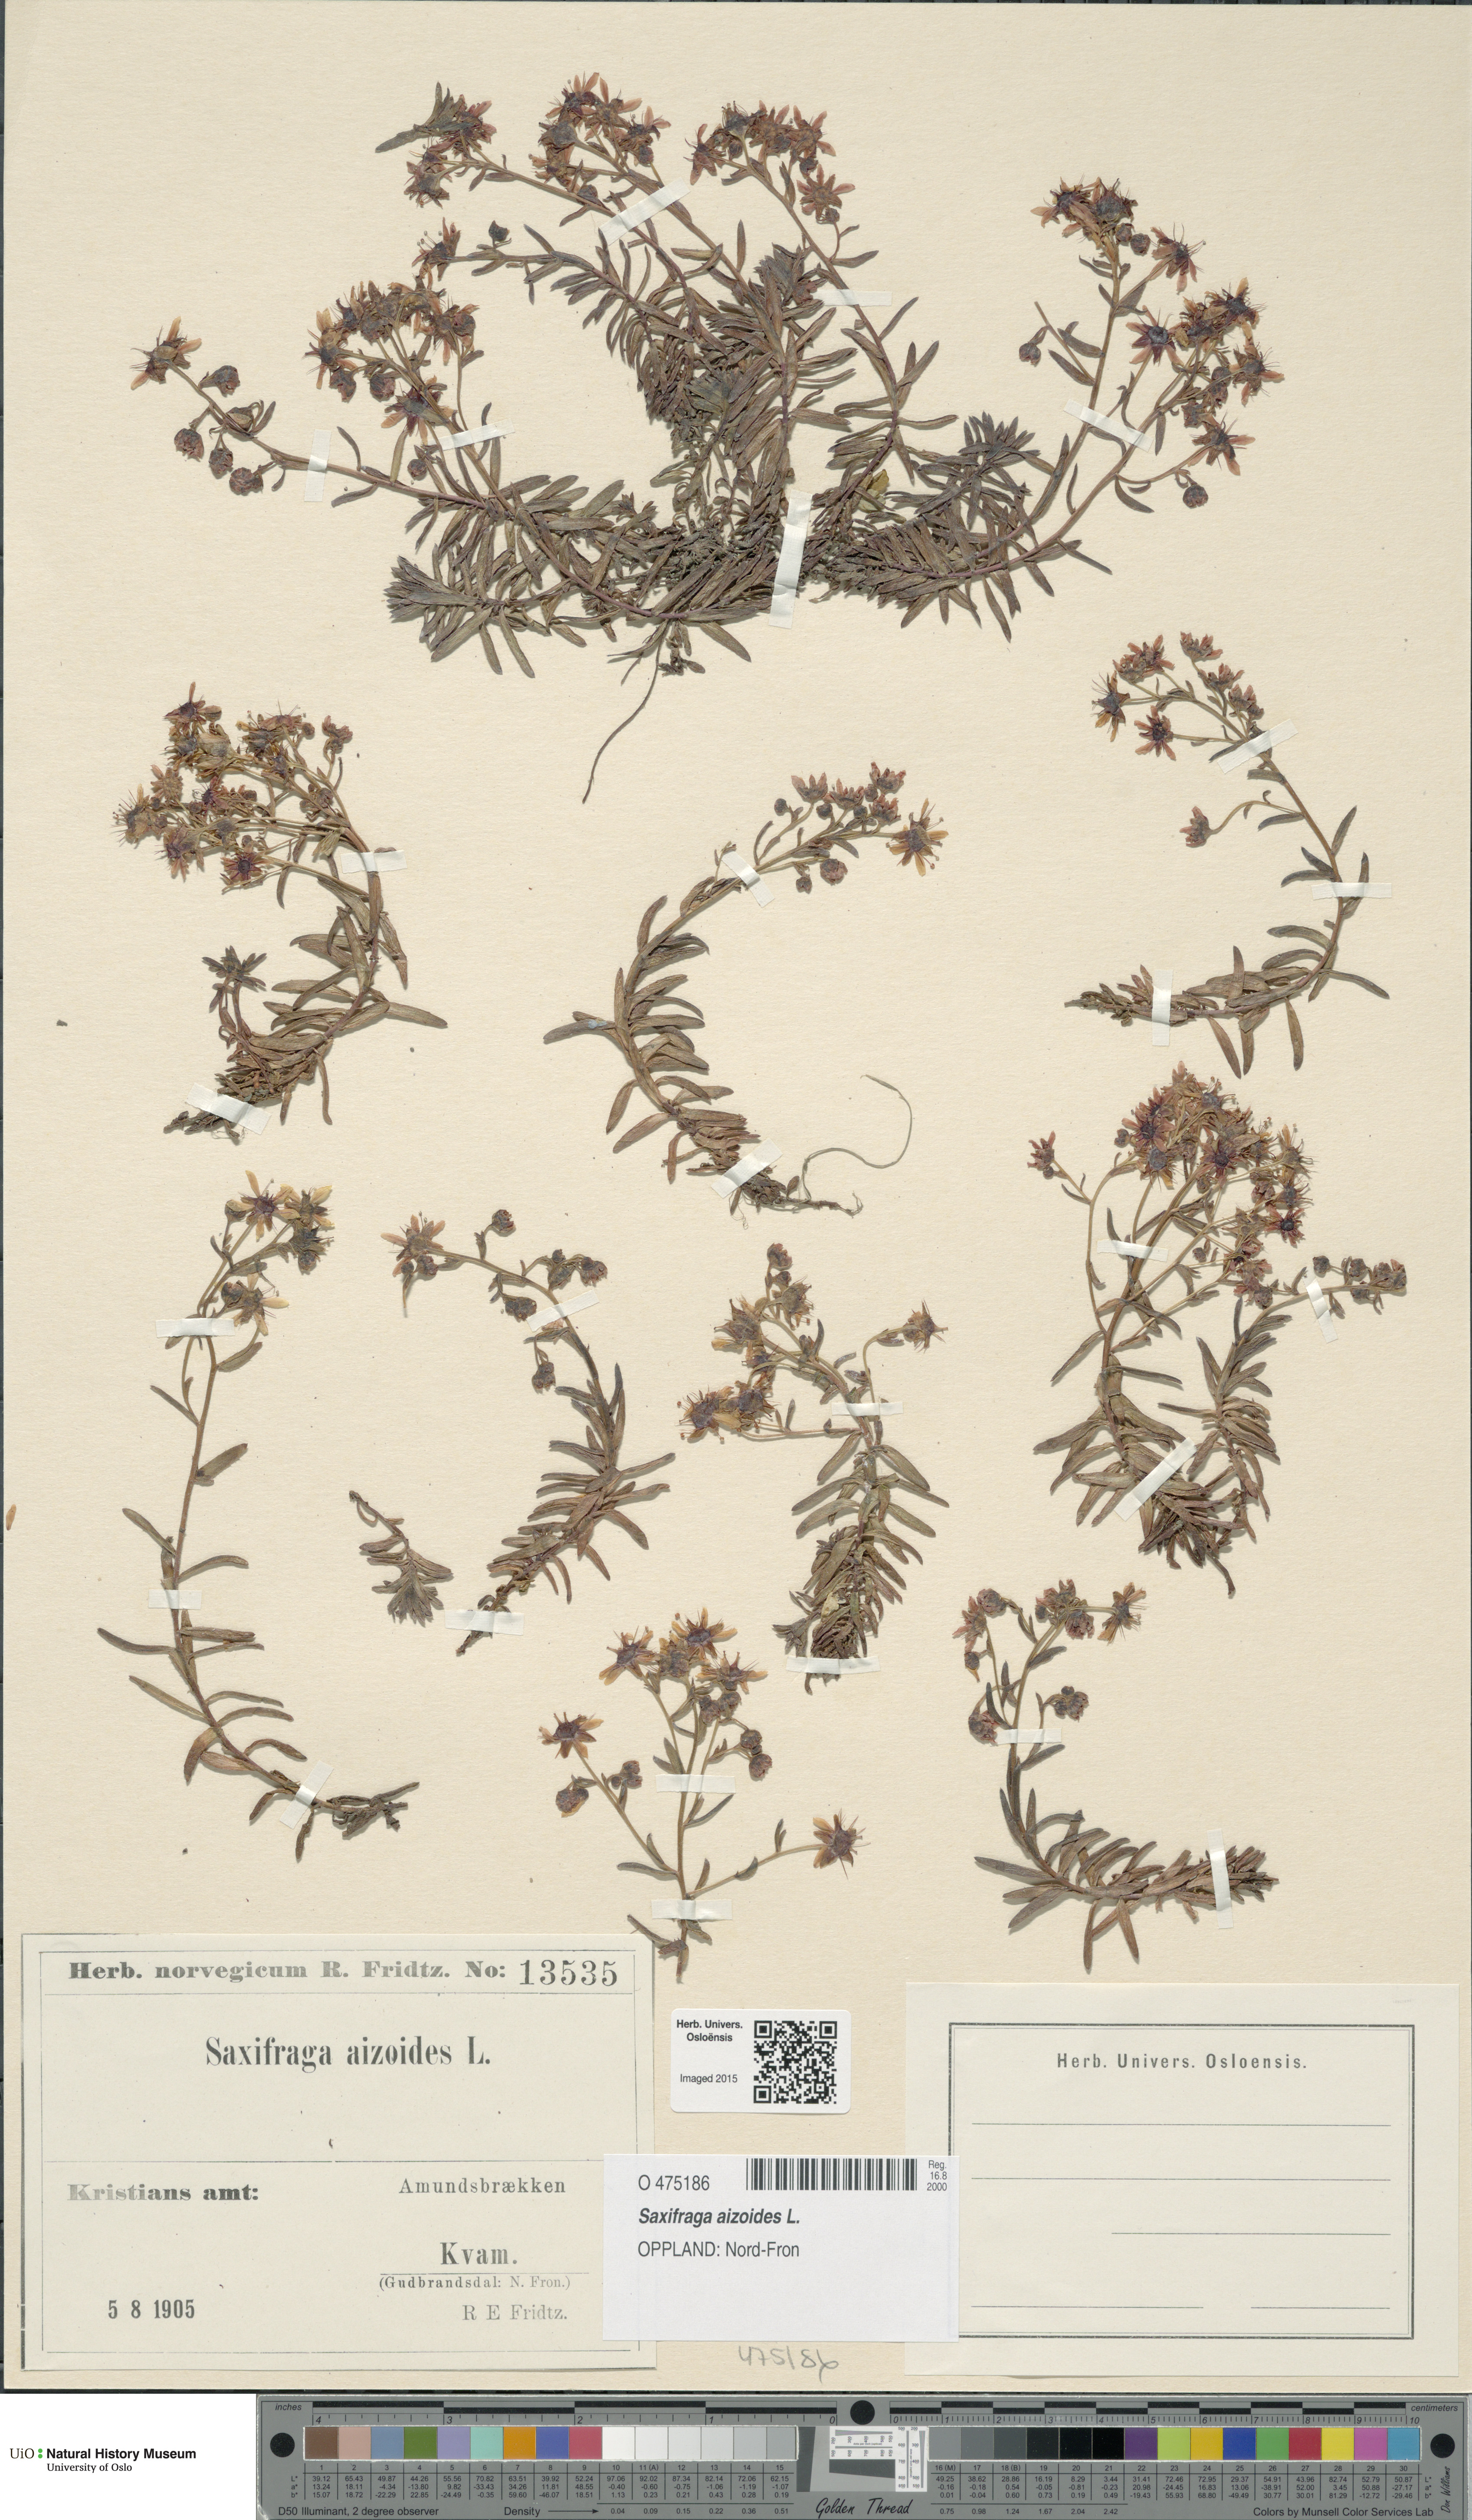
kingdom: Plantae
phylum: Tracheophyta
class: Magnoliopsida
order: Saxifragales
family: Saxifragaceae
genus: Saxifraga
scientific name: Saxifraga aizoides
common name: Yellow mountain saxifrage
